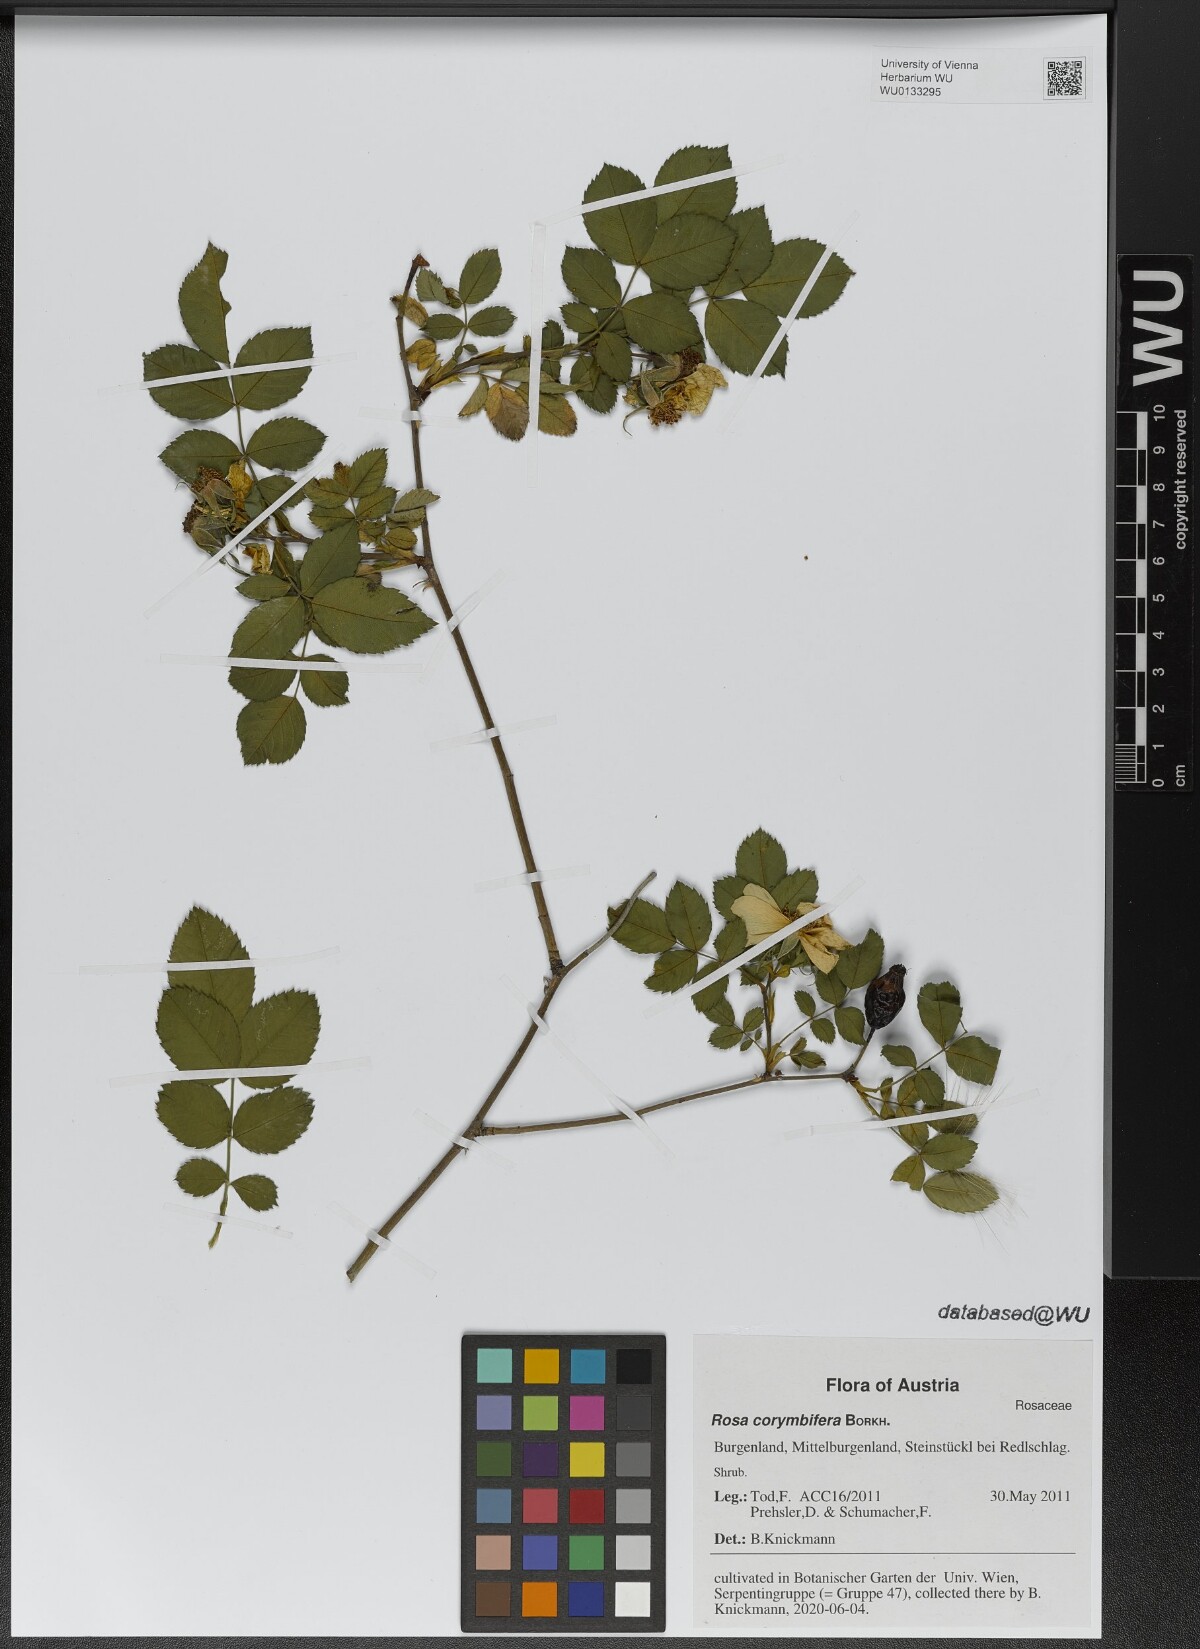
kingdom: Plantae
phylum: Tracheophyta
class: Magnoliopsida
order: Rosales
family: Rosaceae
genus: Rosa
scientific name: Rosa corymbifera
